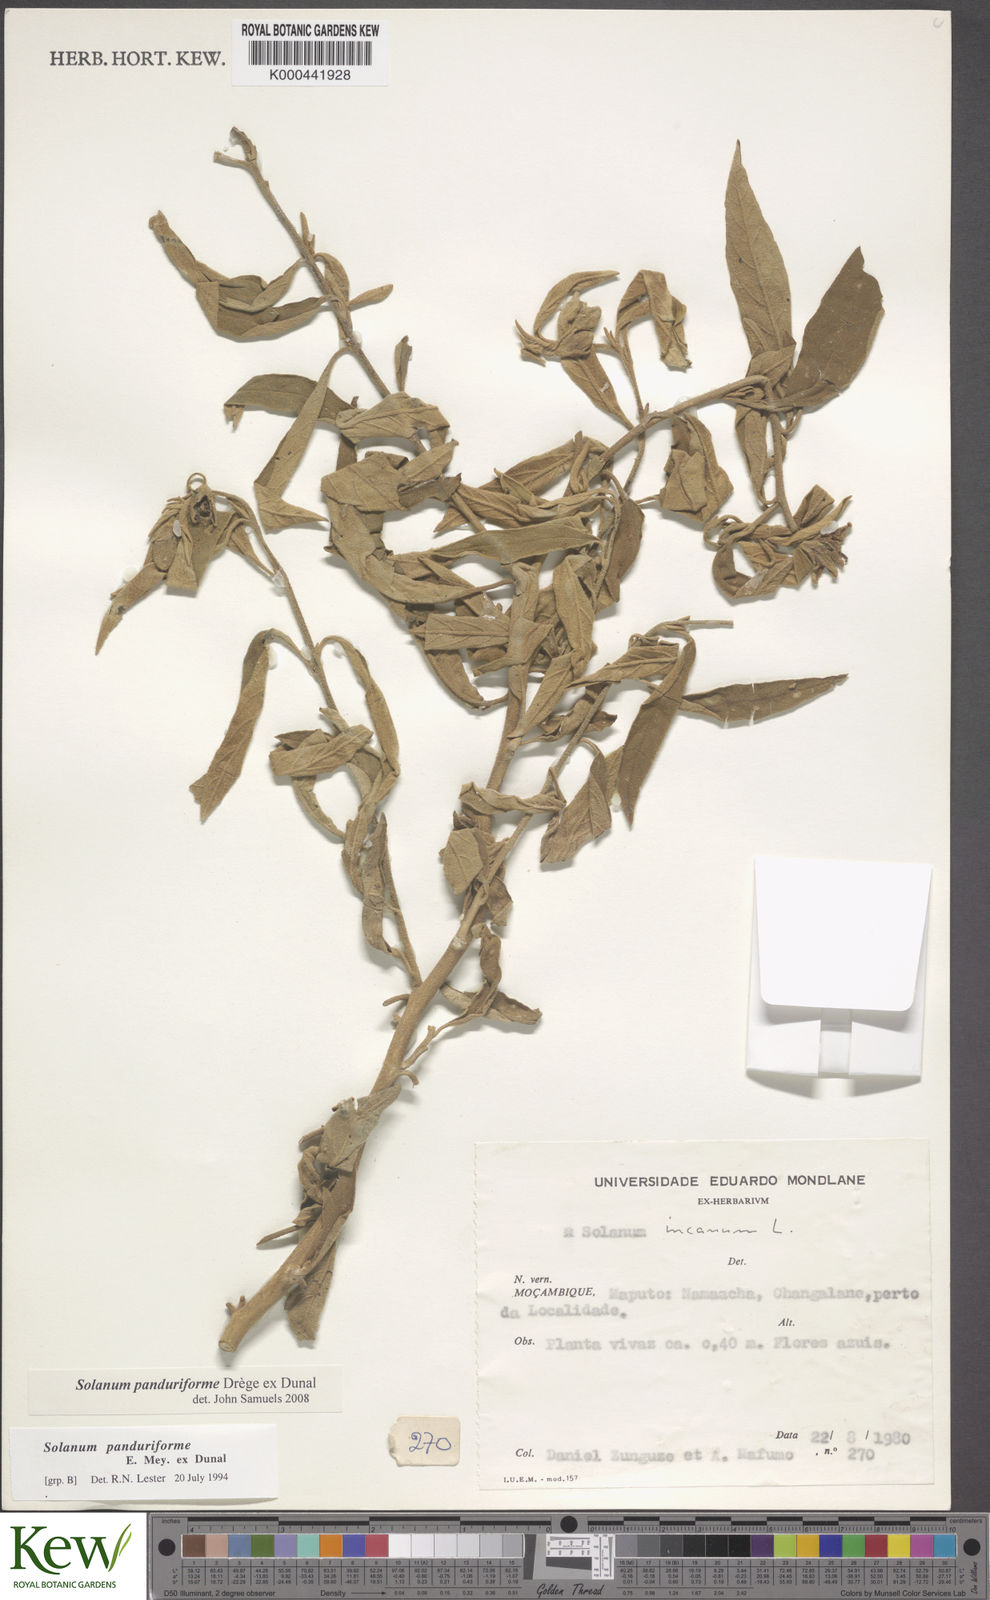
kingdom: Plantae
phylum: Tracheophyta
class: Magnoliopsida
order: Solanales
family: Solanaceae
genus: Solanum
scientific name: Solanum campylacanthum
